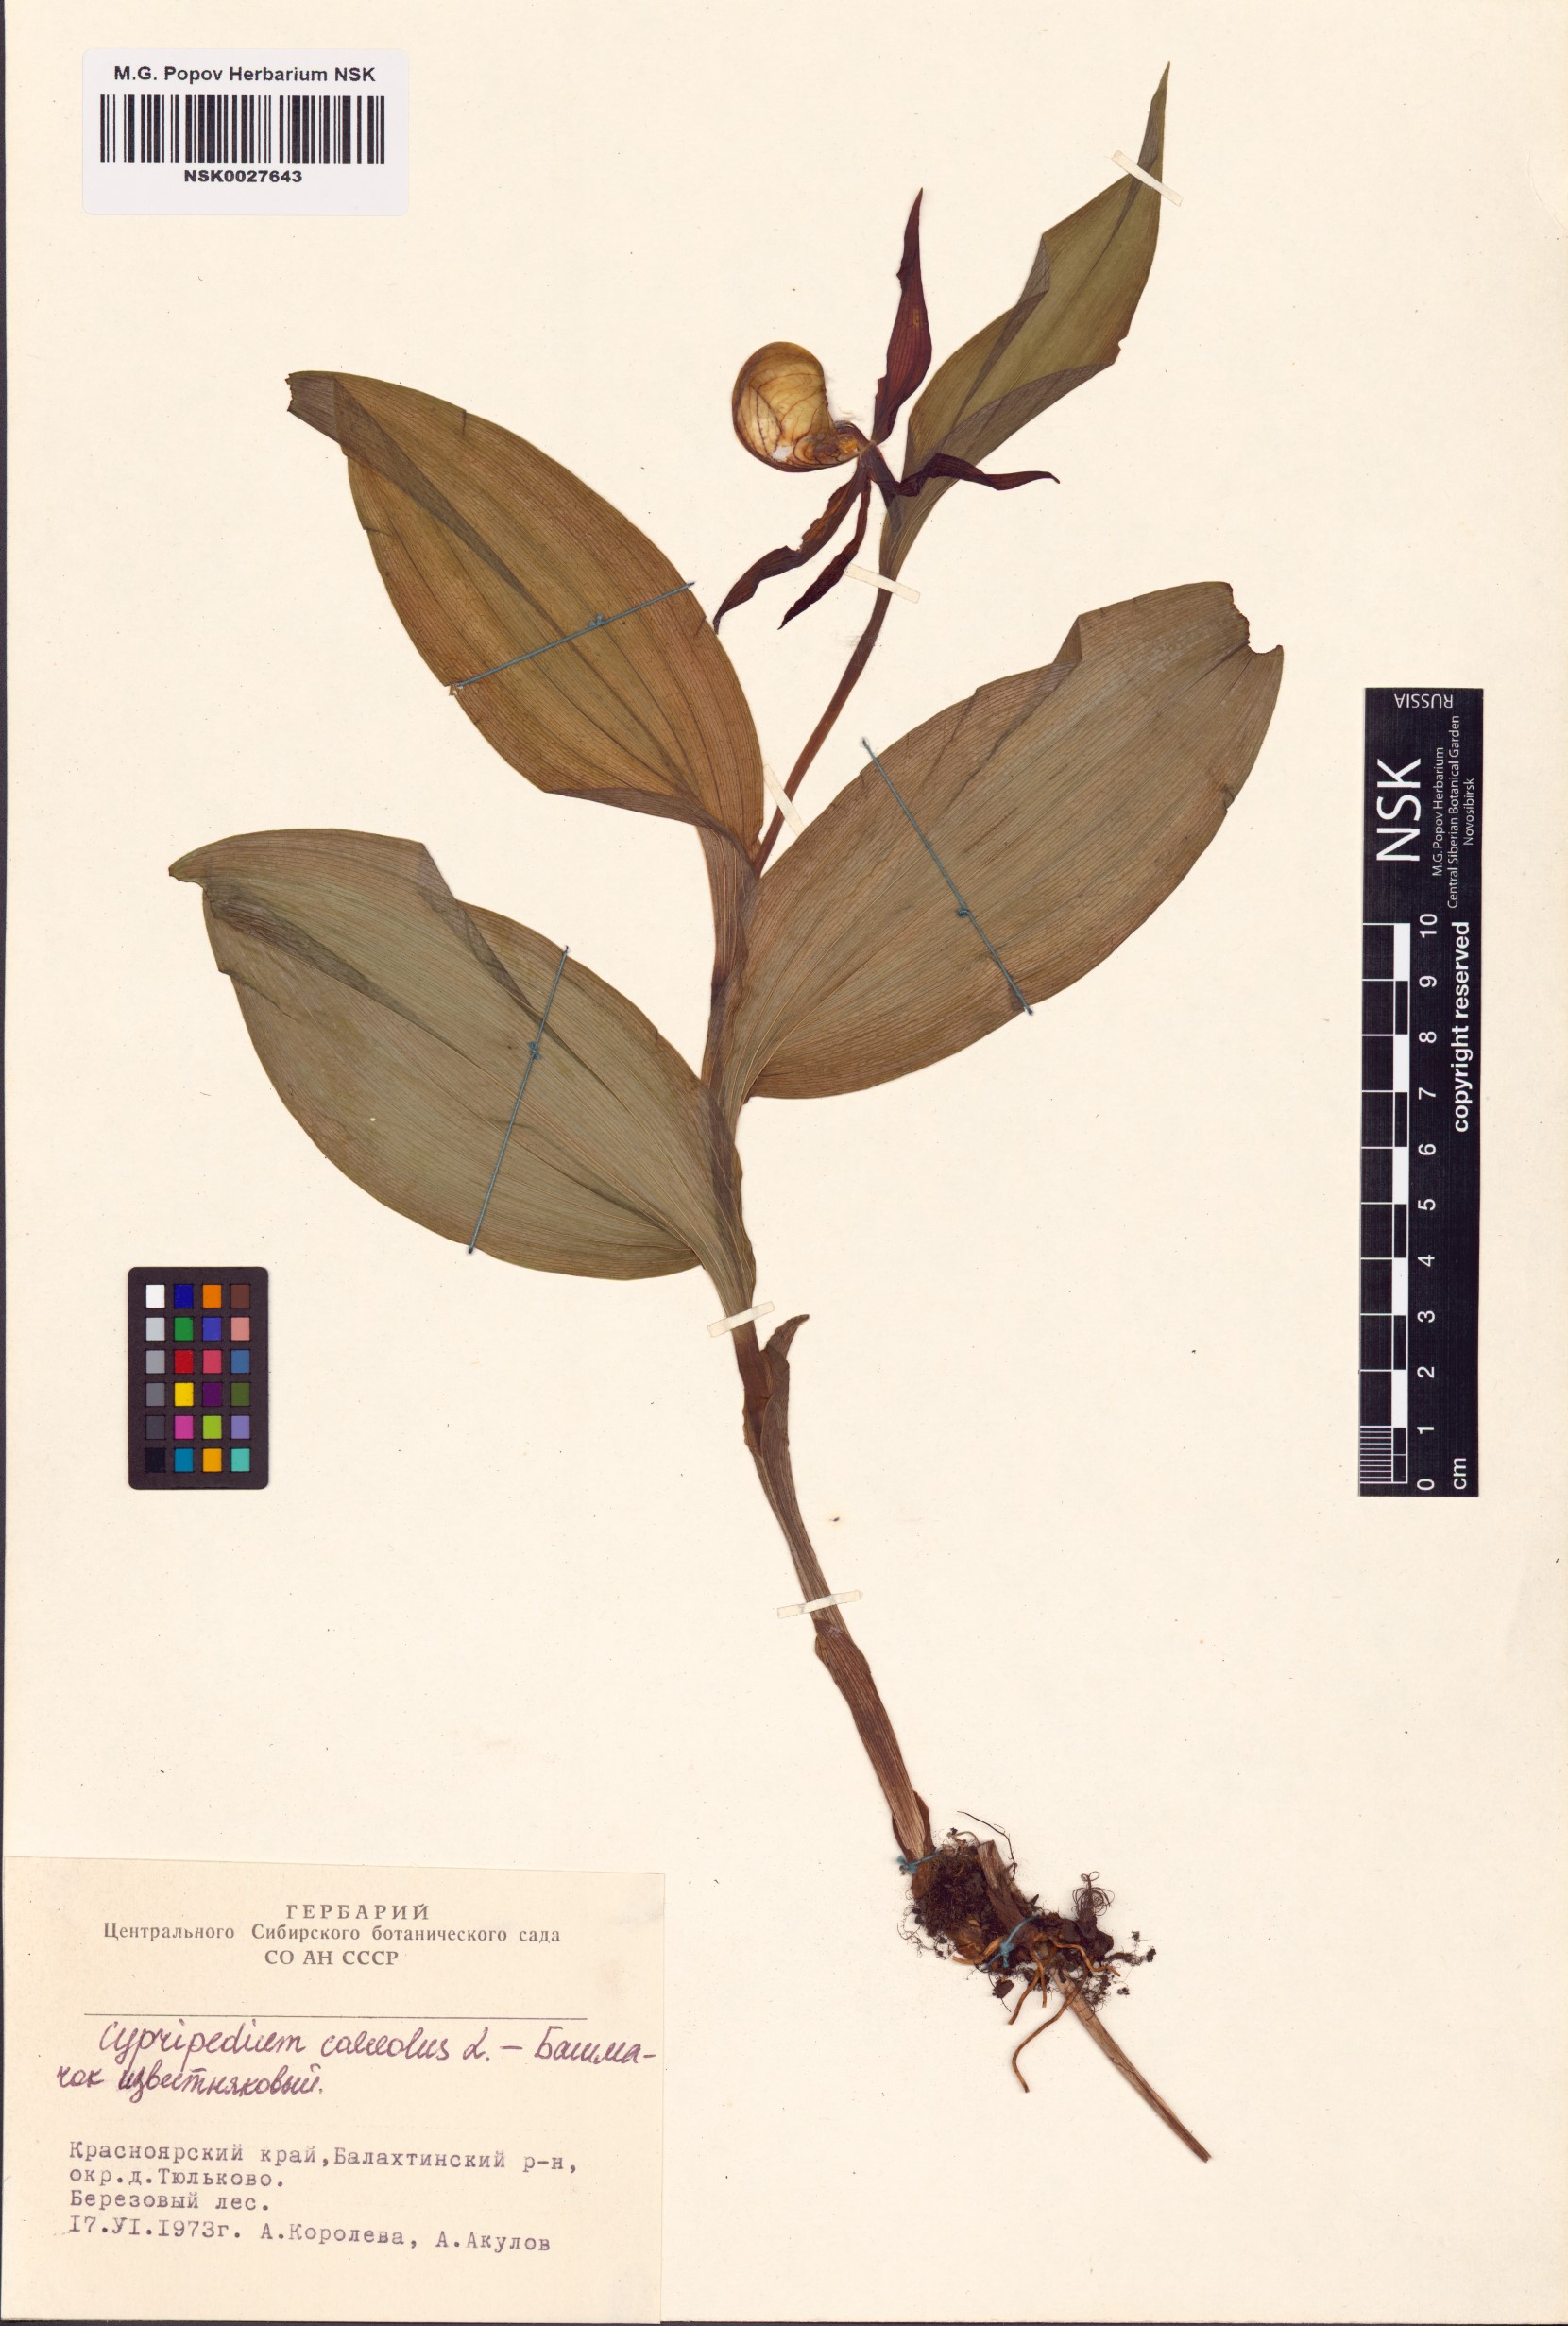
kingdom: Plantae
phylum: Tracheophyta
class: Liliopsida
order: Asparagales
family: Orchidaceae
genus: Cypripedium
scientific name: Cypripedium calceolus
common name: Lady's-slipper
